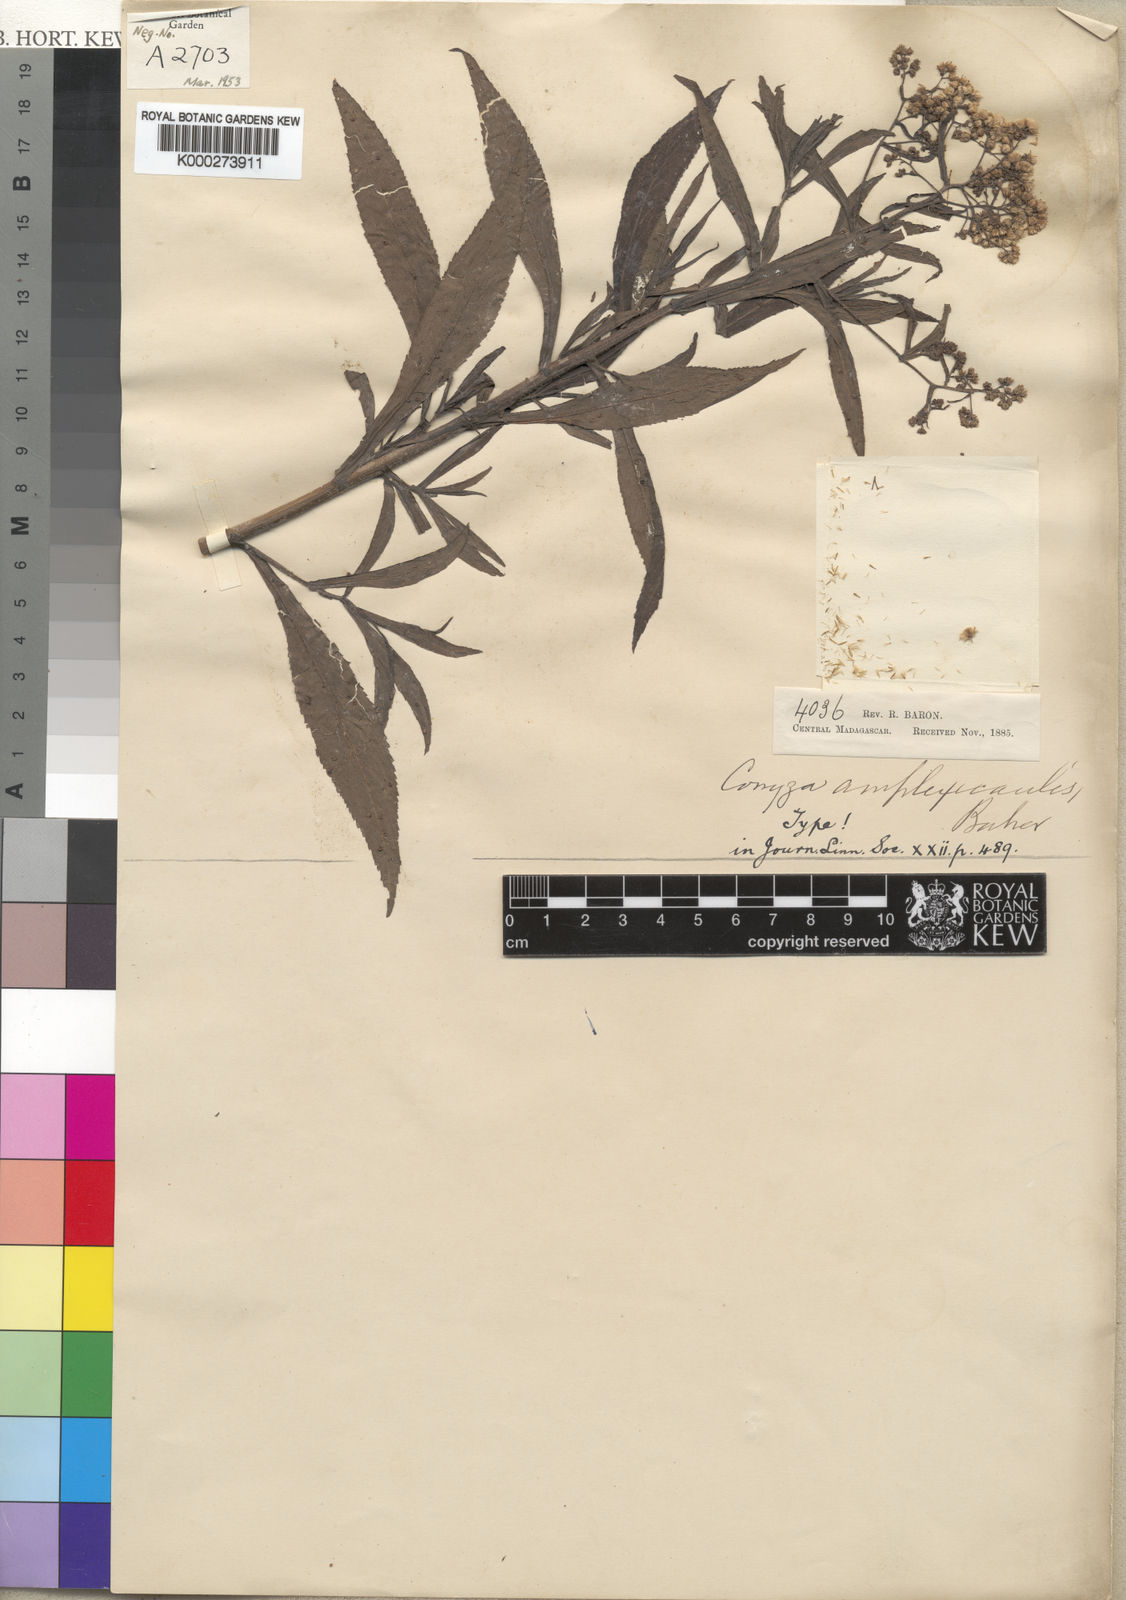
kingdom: Plantae
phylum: Tracheophyta
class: Magnoliopsida
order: Asterales
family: Asteraceae
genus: Nidorella
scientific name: Nidorella attenuata
